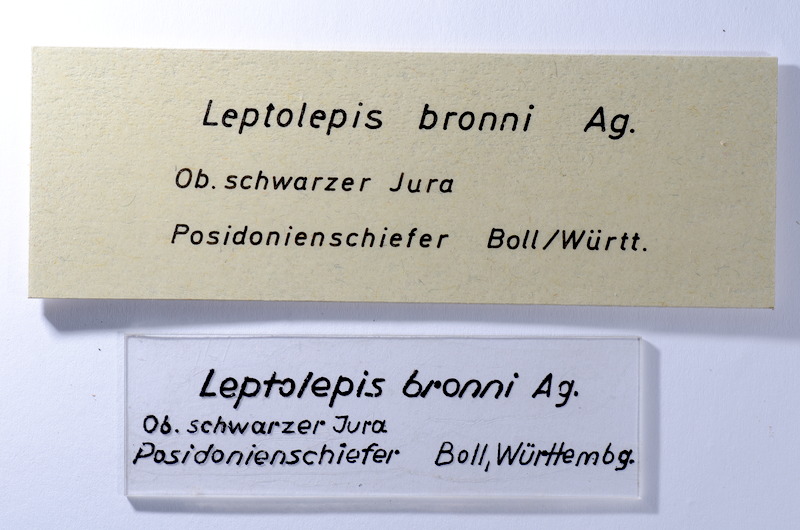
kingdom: Animalia
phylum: Chordata
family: Leptolepididae
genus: Leptolepis
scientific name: Leptolepis coryphaenoides
